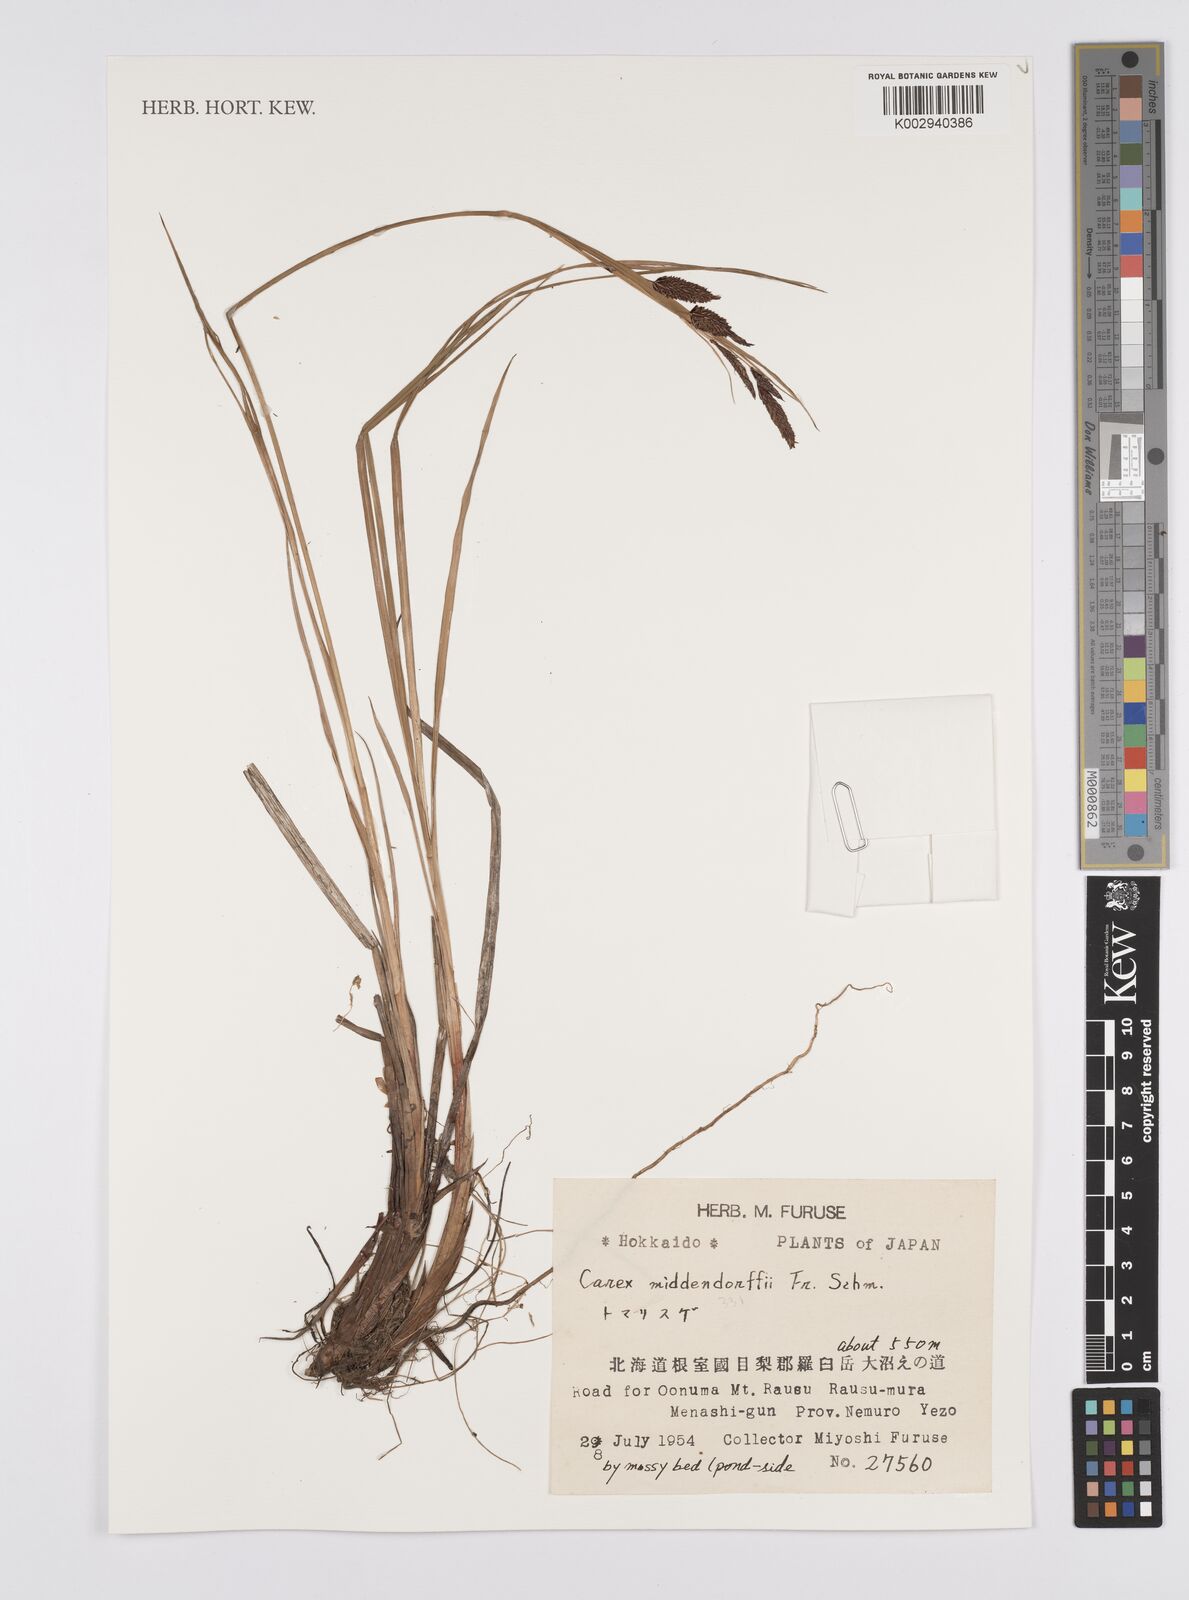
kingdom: Plantae
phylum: Tracheophyta
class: Liliopsida
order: Poales
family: Cyperaceae
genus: Carex
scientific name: Carex middendorffii
